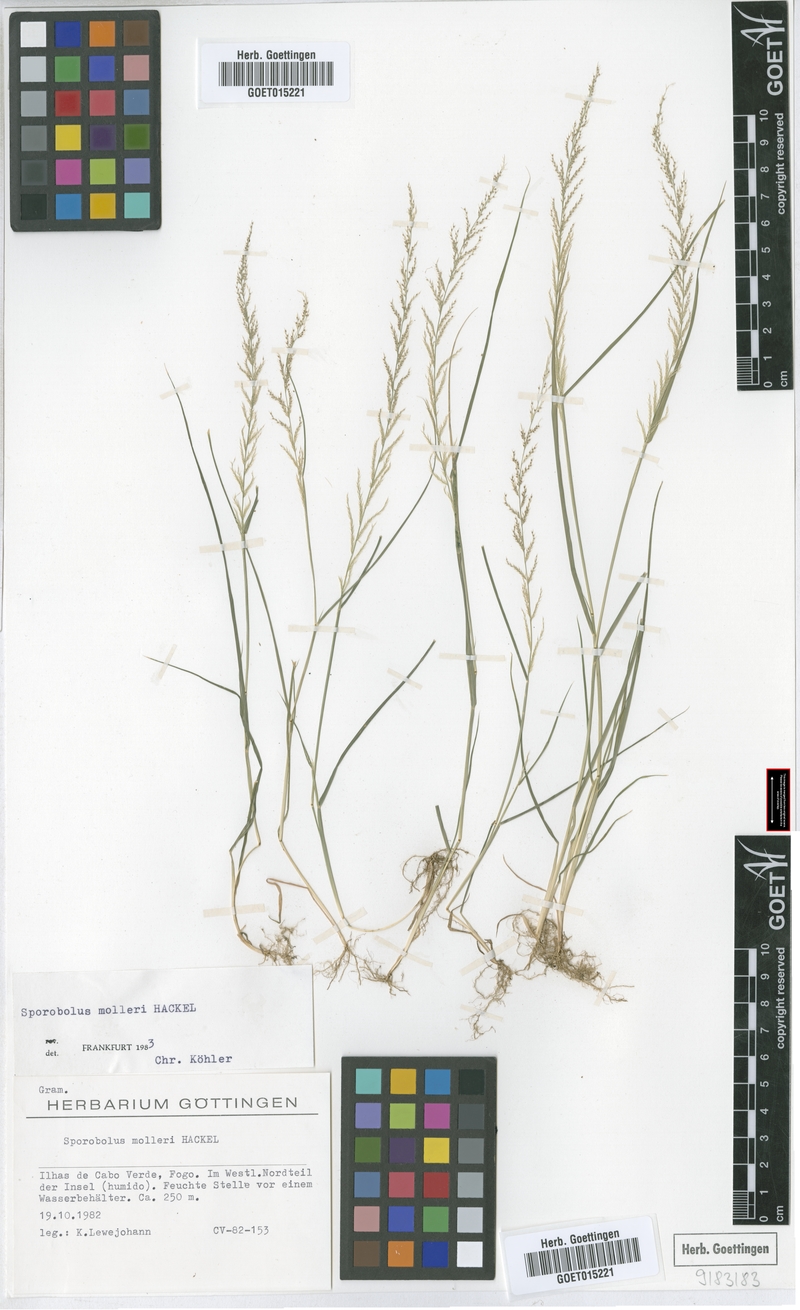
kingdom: Plantae
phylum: Tracheophyta
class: Liliopsida
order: Poales
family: Poaceae
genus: Sporobolus
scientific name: Sporobolus molleri
